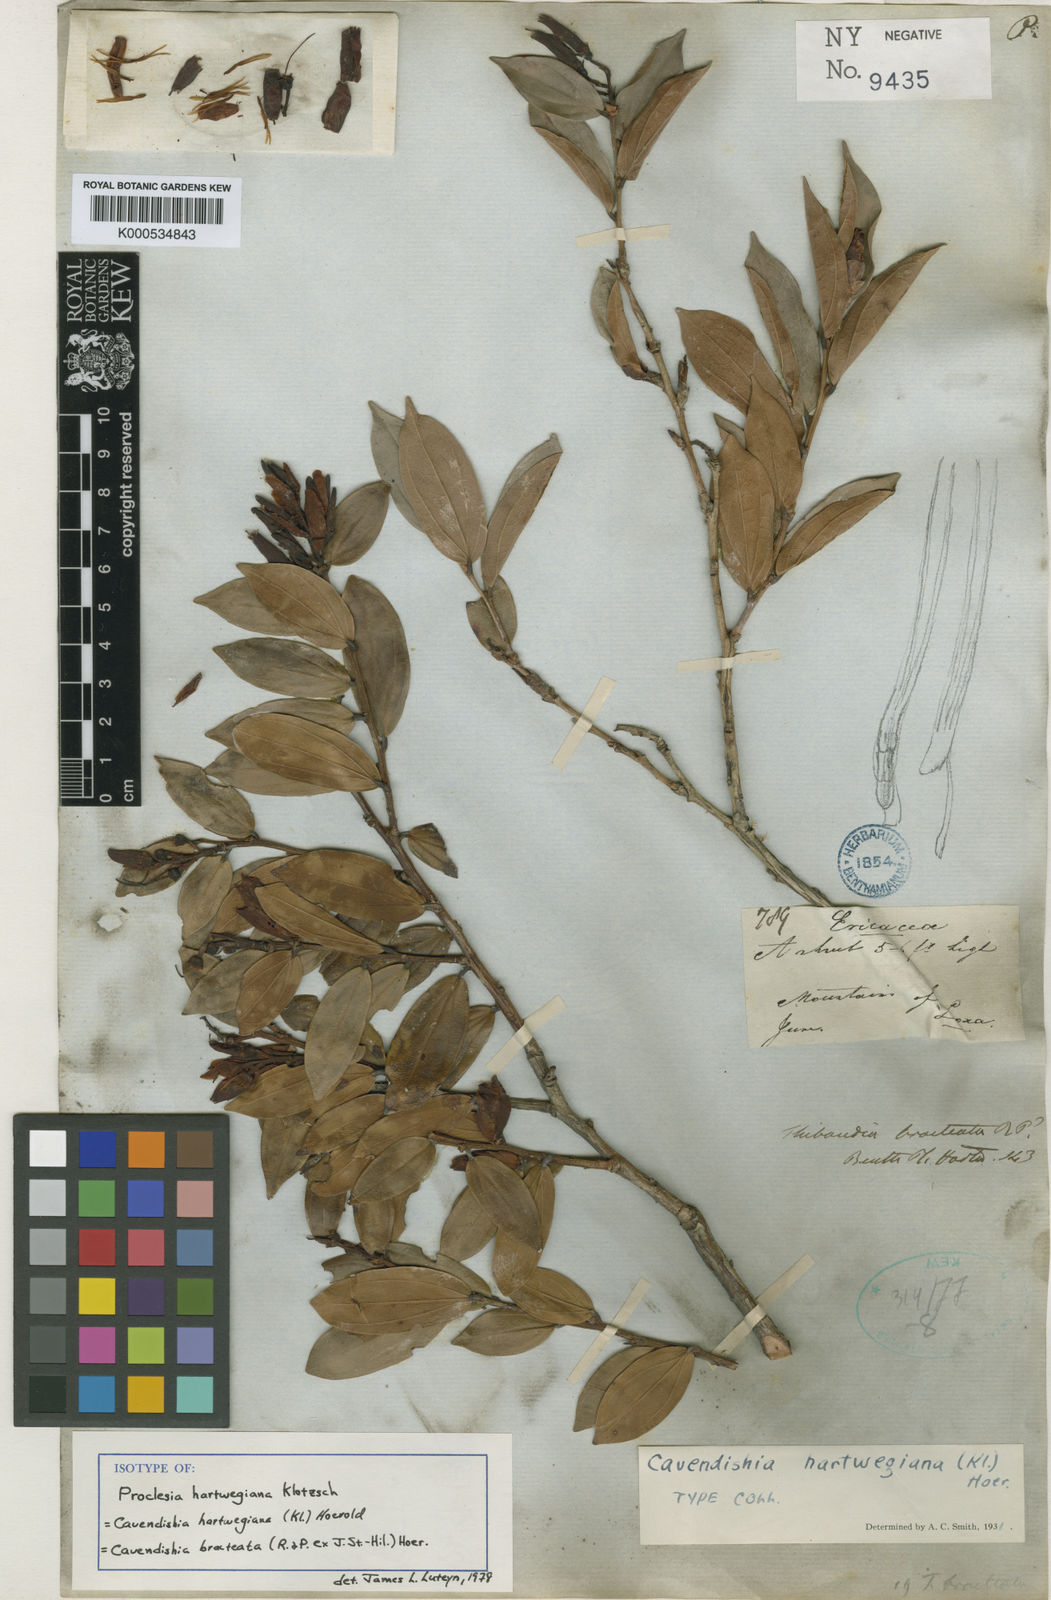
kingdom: Plantae
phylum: Tracheophyta
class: Magnoliopsida
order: Ericales
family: Ericaceae
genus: Cavendishia
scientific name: Cavendishia bracteata
